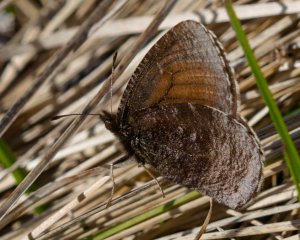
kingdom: Animalia
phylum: Arthropoda
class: Insecta
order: Lepidoptera
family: Nymphalidae
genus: Erebia
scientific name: Erebia discoidalis
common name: Red-disked Alpine
